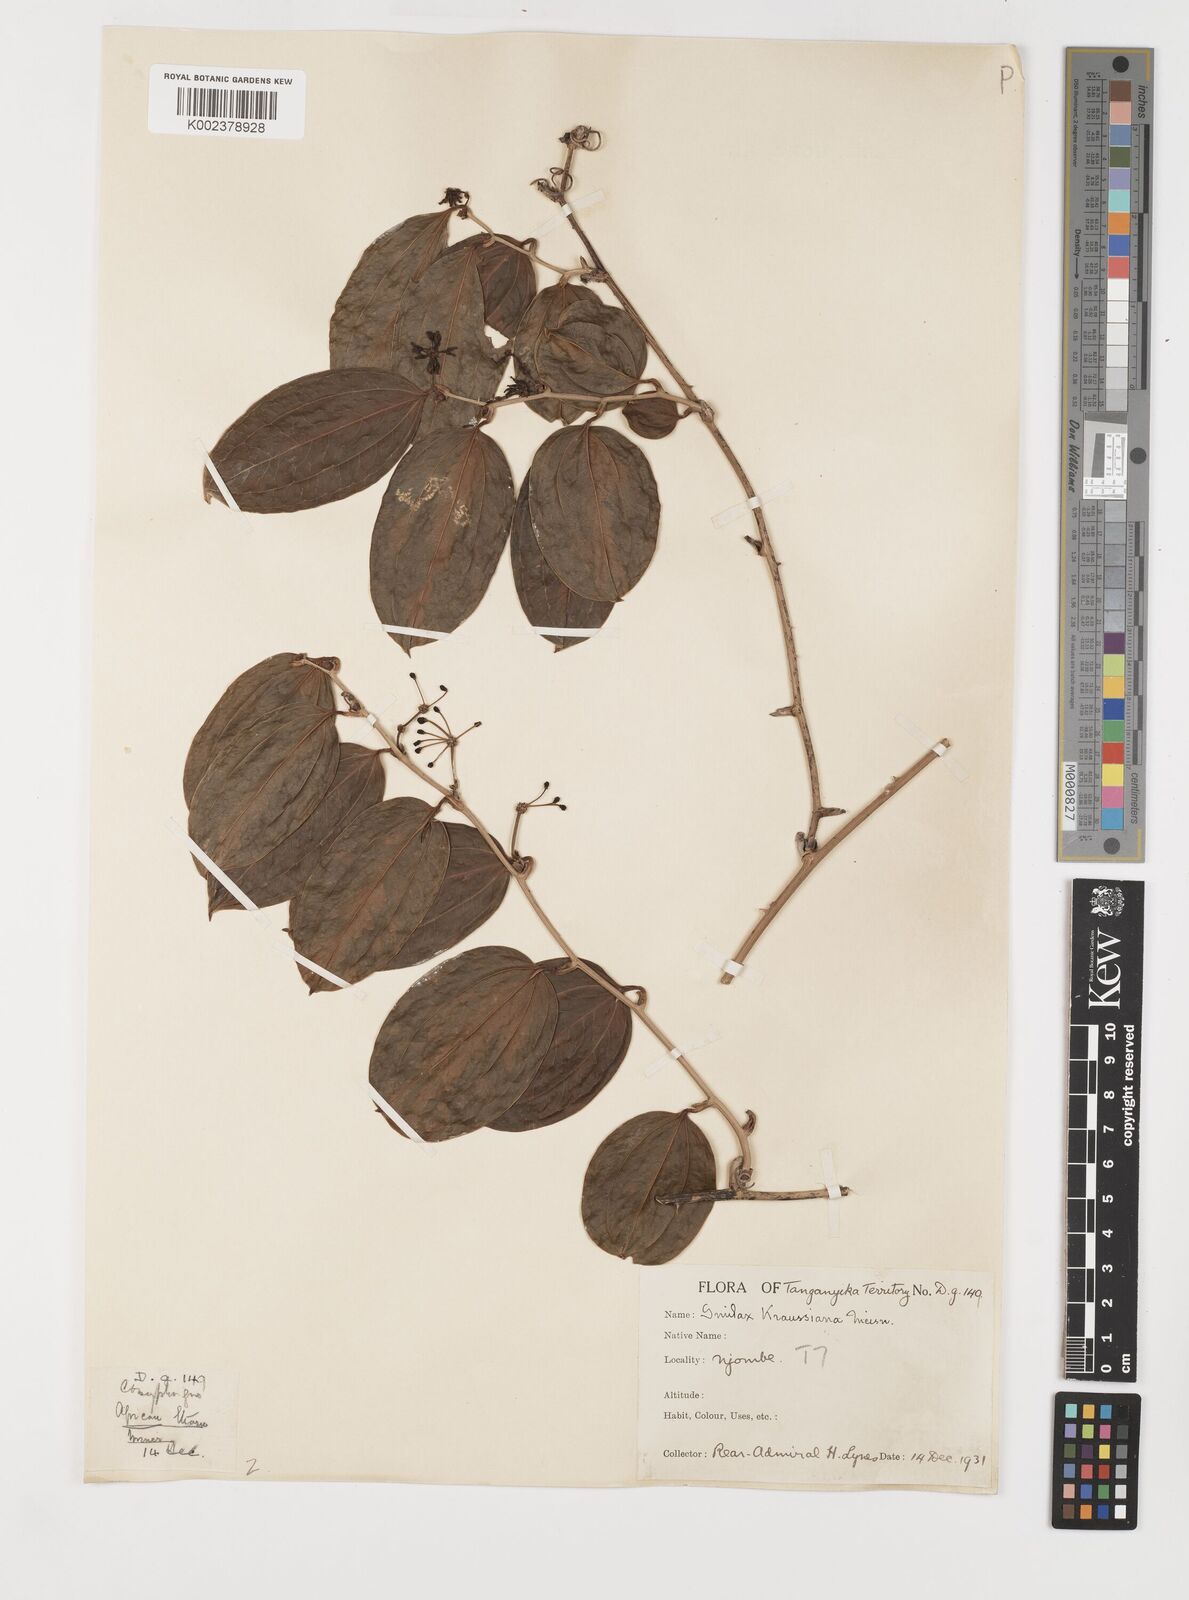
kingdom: Plantae
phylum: Tracheophyta
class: Liliopsida
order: Liliales
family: Smilacaceae
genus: Smilax
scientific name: Smilax anceps
